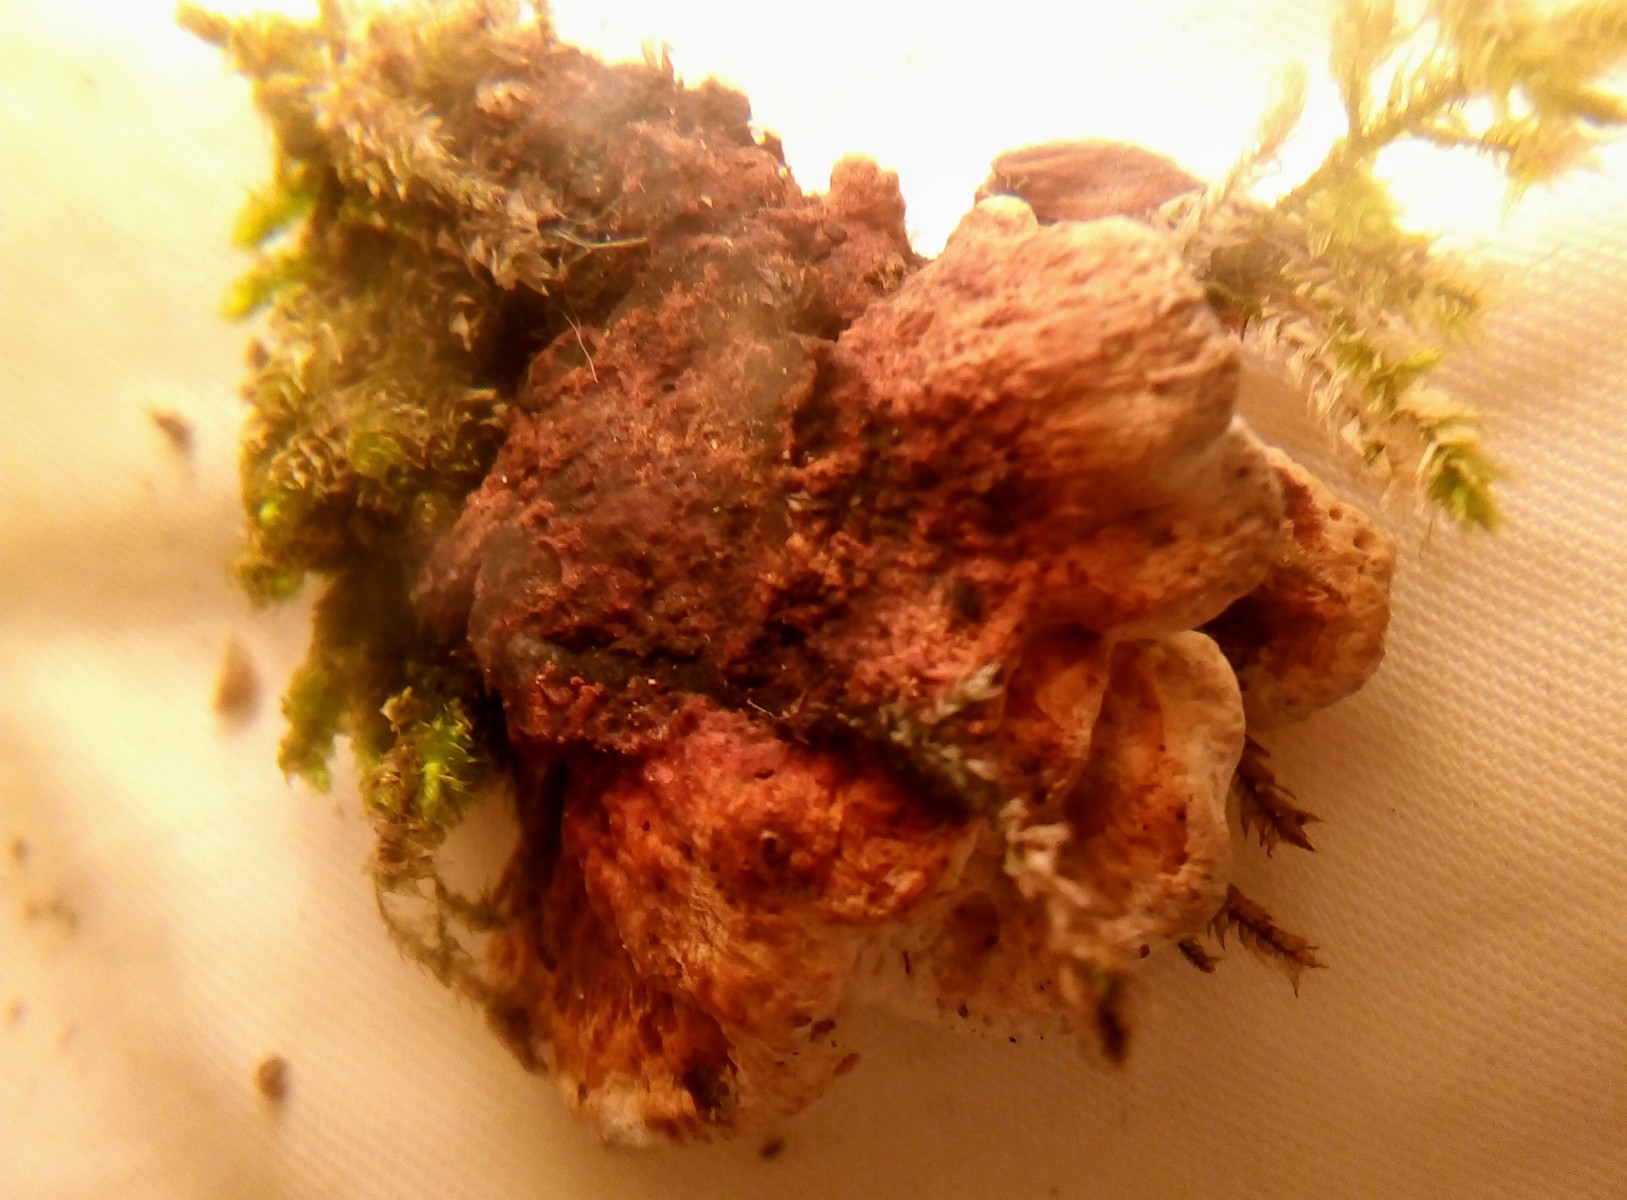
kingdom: Fungi
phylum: Basidiomycota
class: Agaricomycetes
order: Polyporales
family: Incrustoporiaceae
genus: Skeletocutis
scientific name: Skeletocutis nemoralis
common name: stor krystalporesvamp
